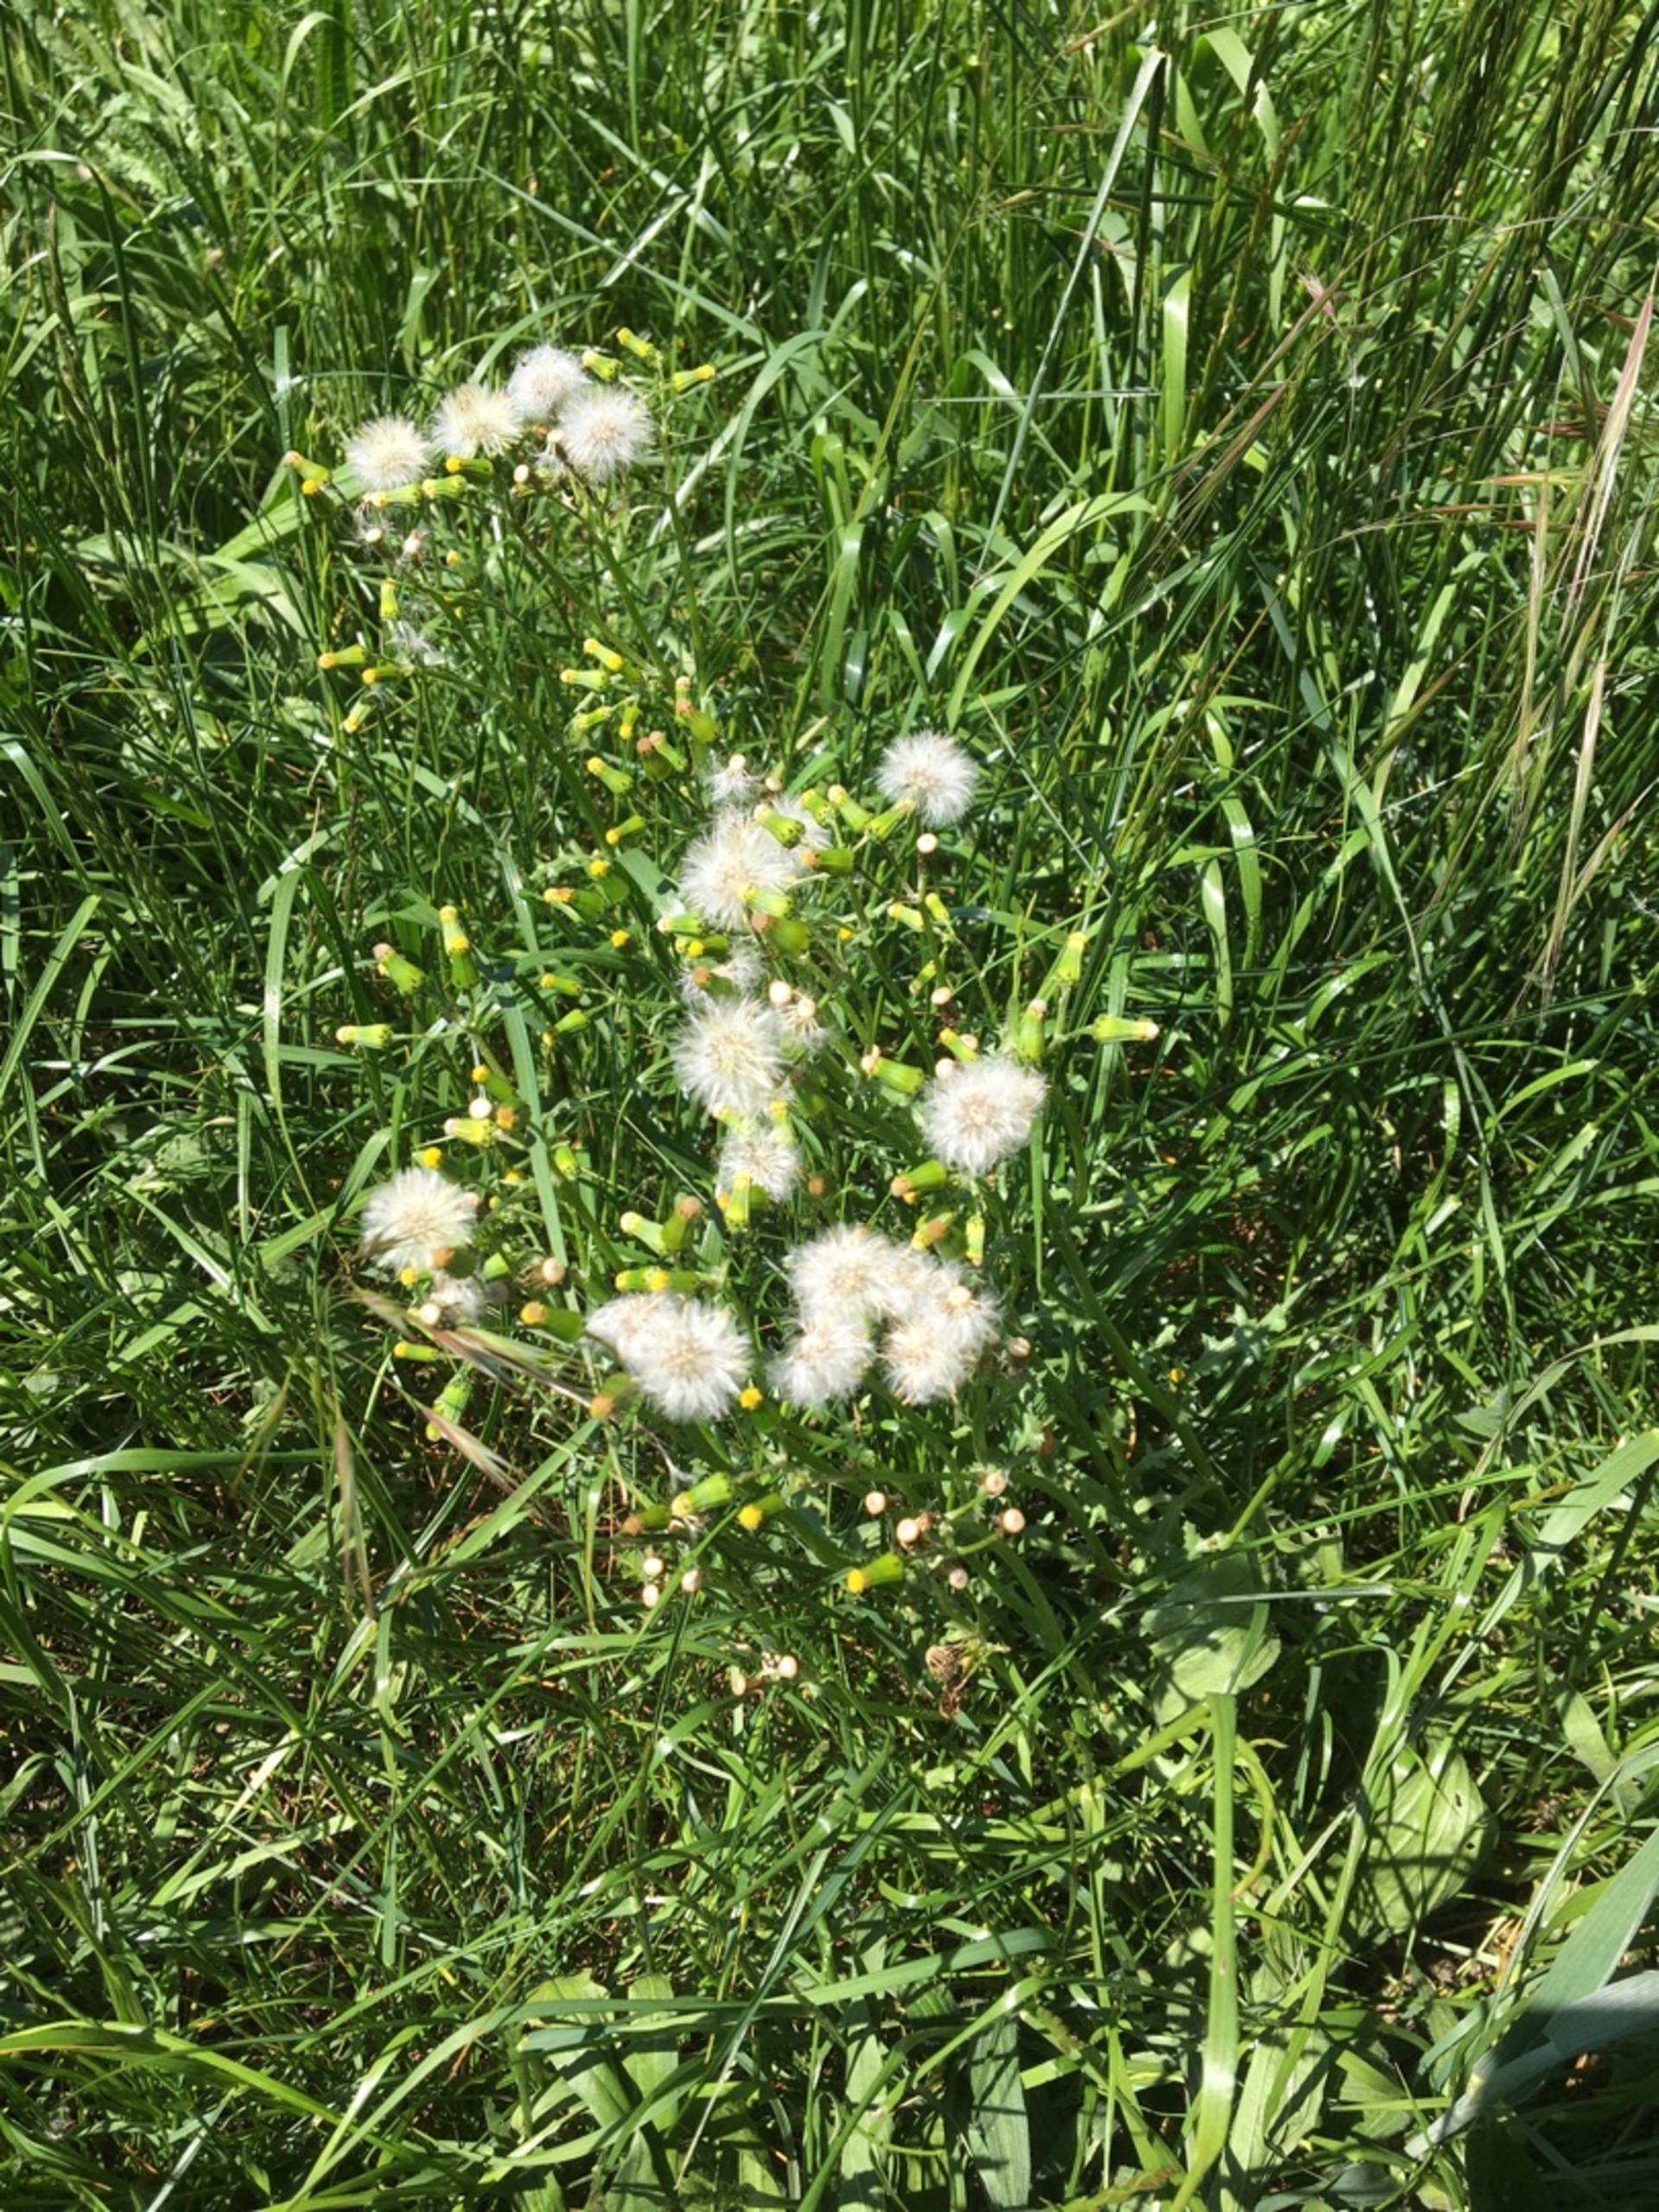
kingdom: Plantae
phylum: Tracheophyta
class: Magnoliopsida
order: Asterales
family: Asteraceae
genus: Senecio
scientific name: Senecio vulgaris
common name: Almindelig brandbæger
